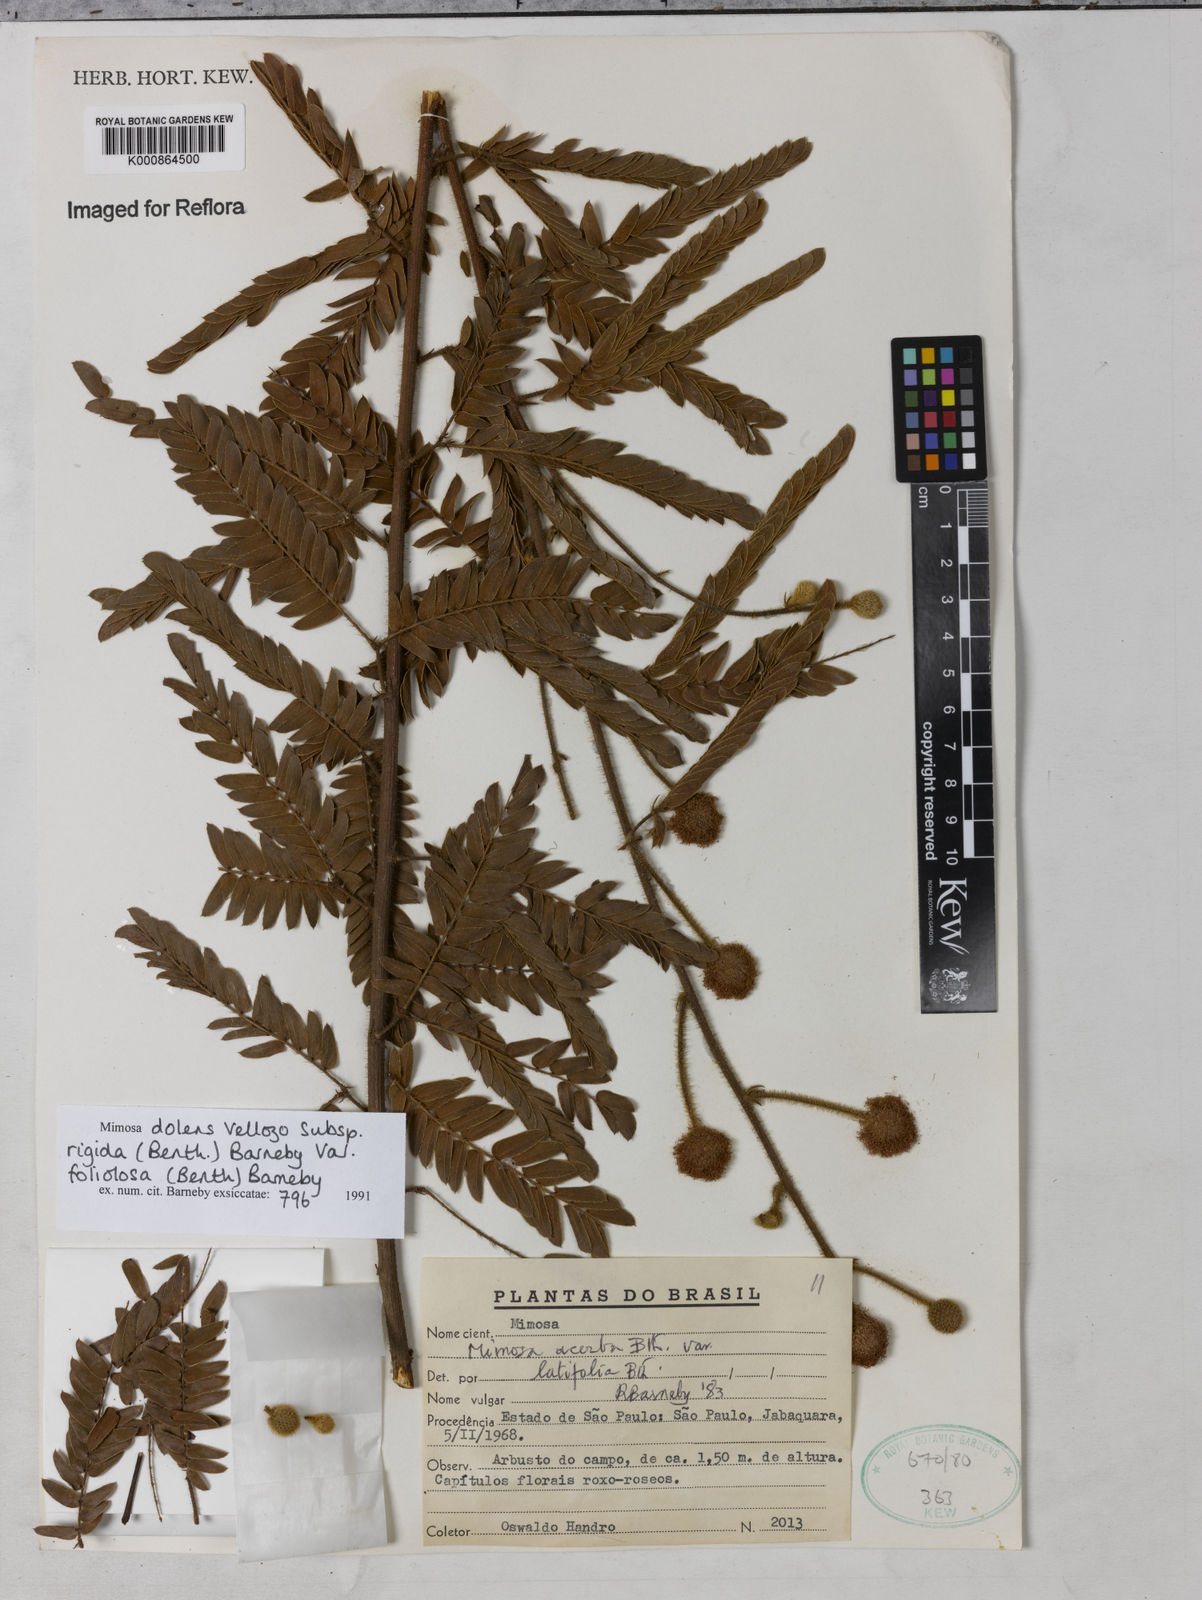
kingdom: Plantae
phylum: Tracheophyta
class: Magnoliopsida
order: Fabales
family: Fabaceae
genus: Mimosa
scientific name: Mimosa dolens
